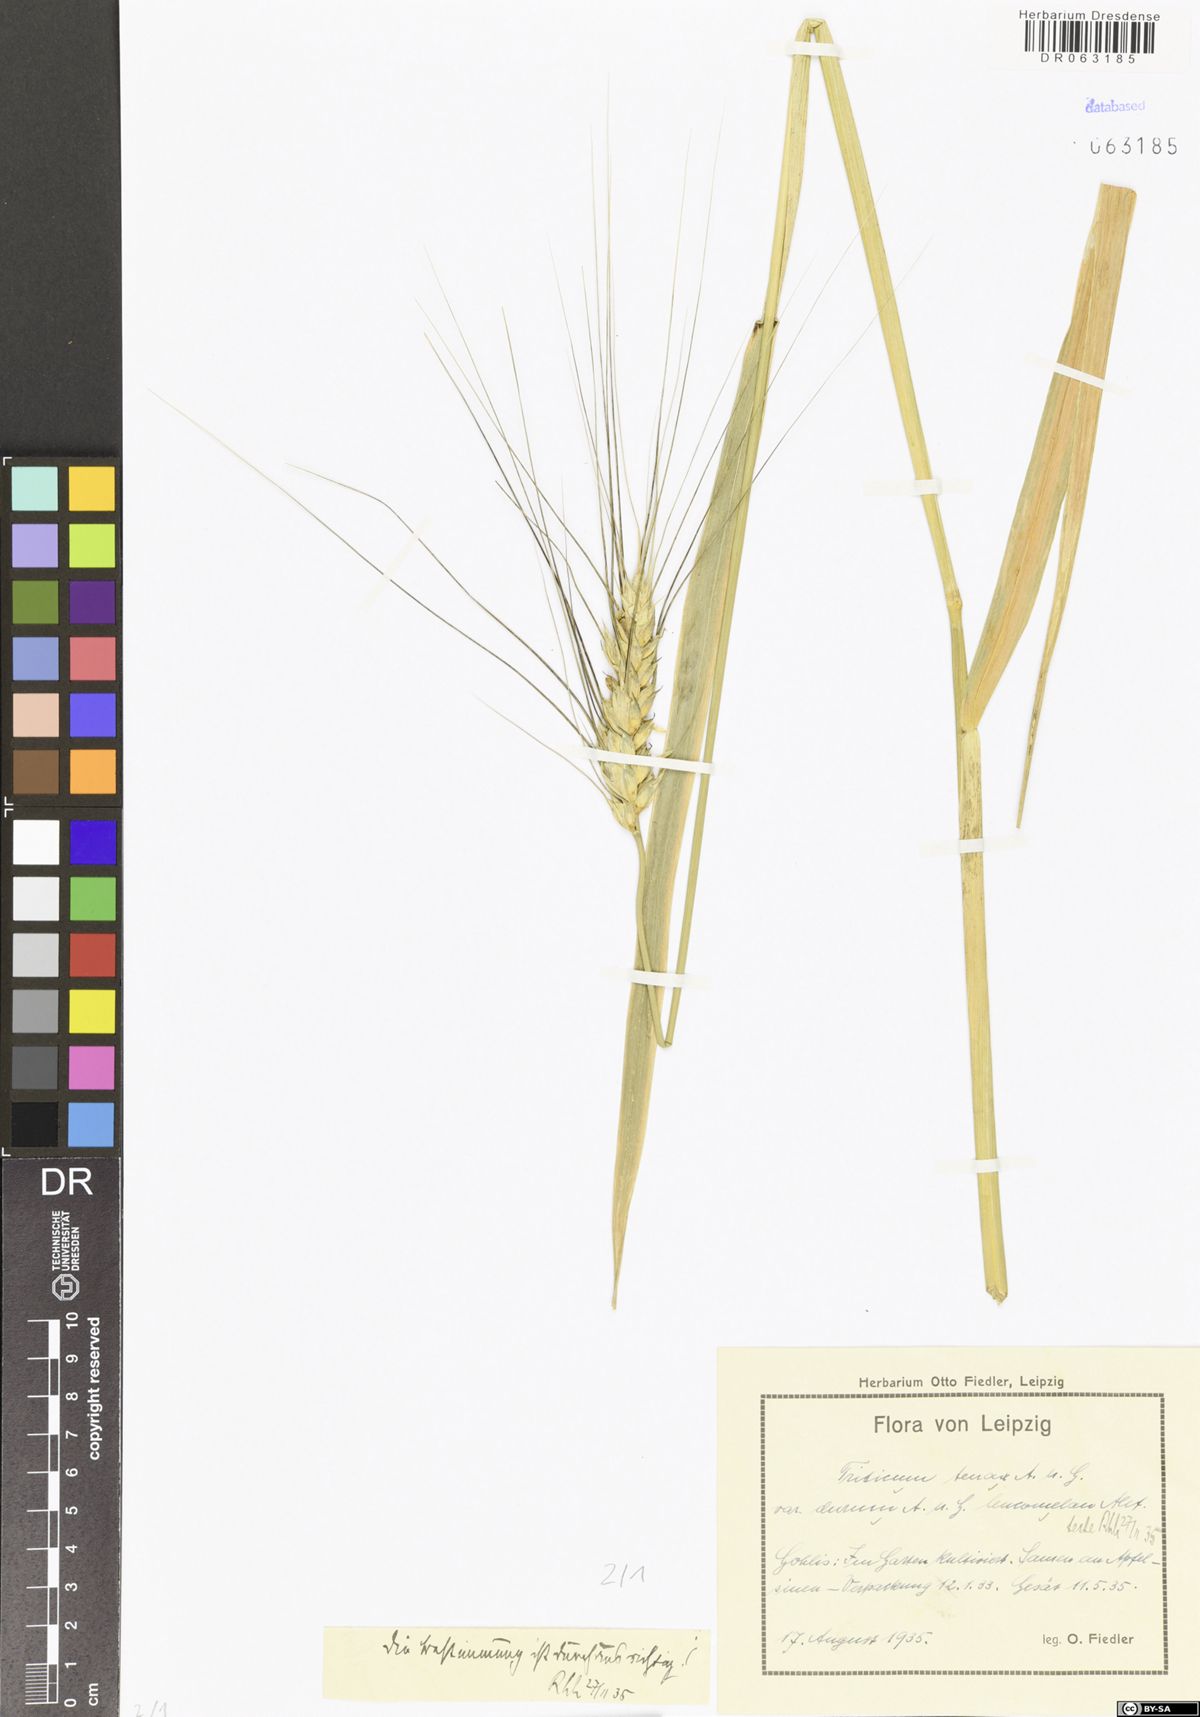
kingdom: Plantae
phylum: Tracheophyta
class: Liliopsida
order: Poales
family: Poaceae
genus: Triticum
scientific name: Triticum monococcum
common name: Einkorn
